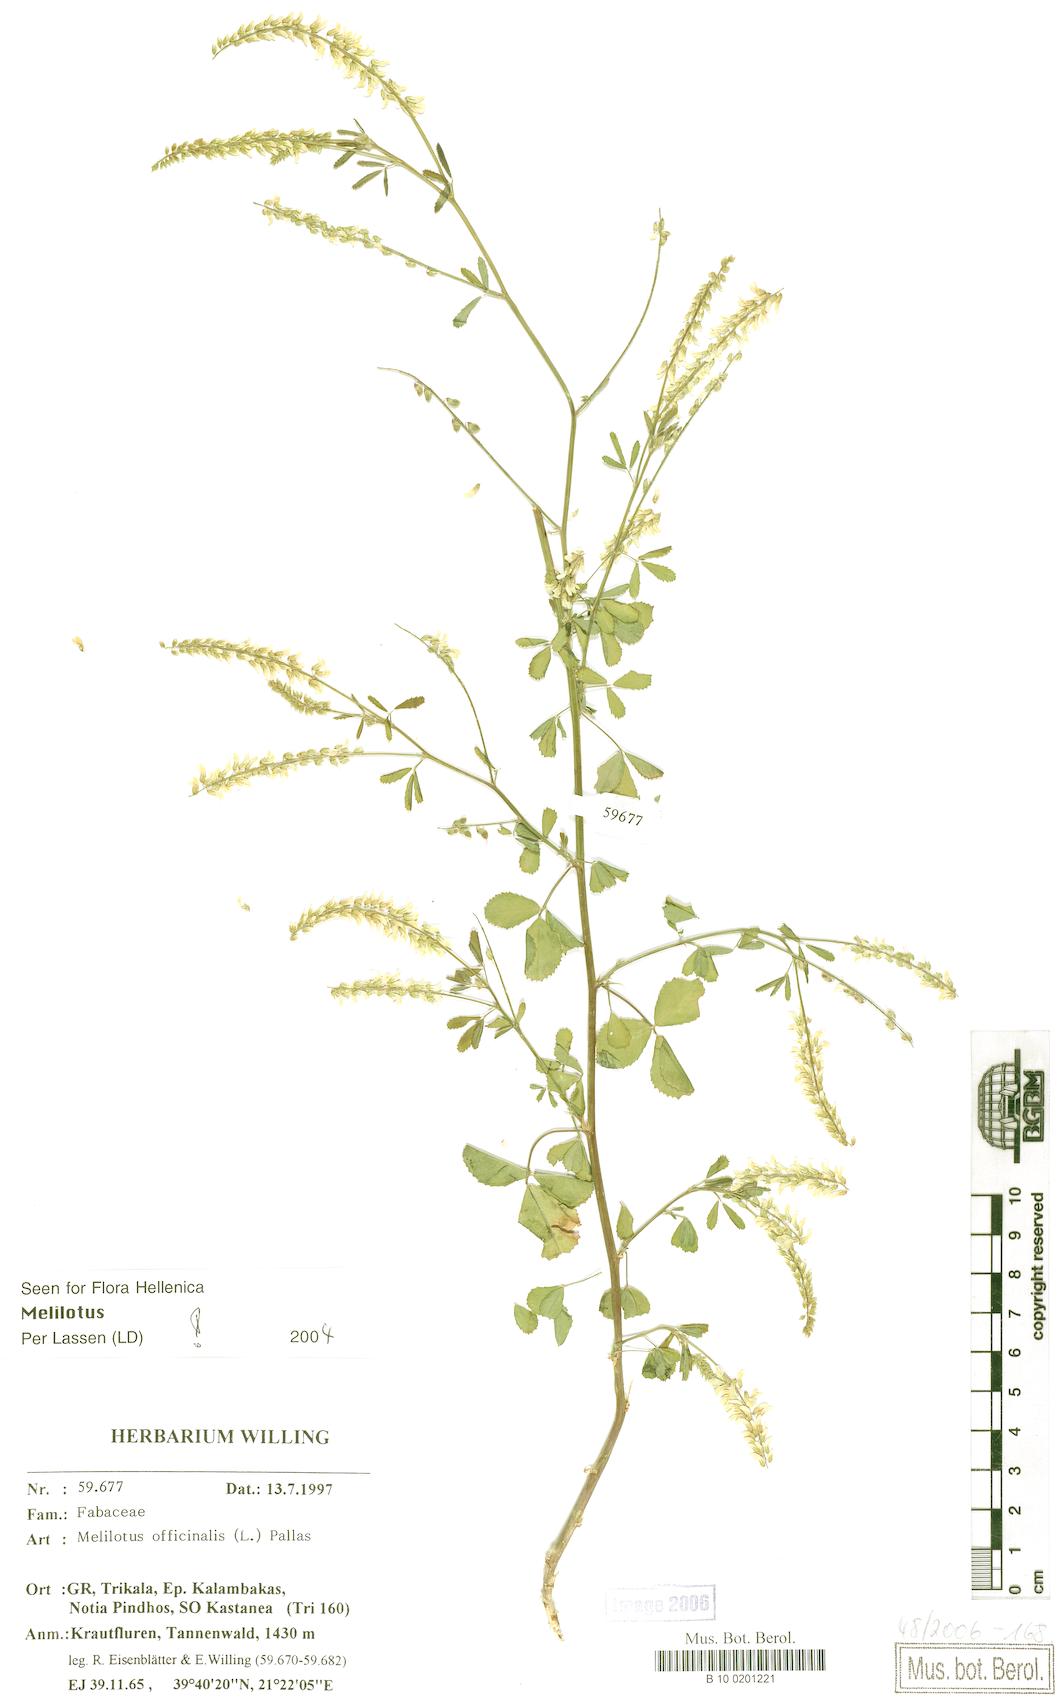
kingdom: Plantae
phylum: Tracheophyta
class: Magnoliopsida
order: Fabales
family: Fabaceae
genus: Melilotus
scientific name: Melilotus officinalis
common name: Sweetclover
